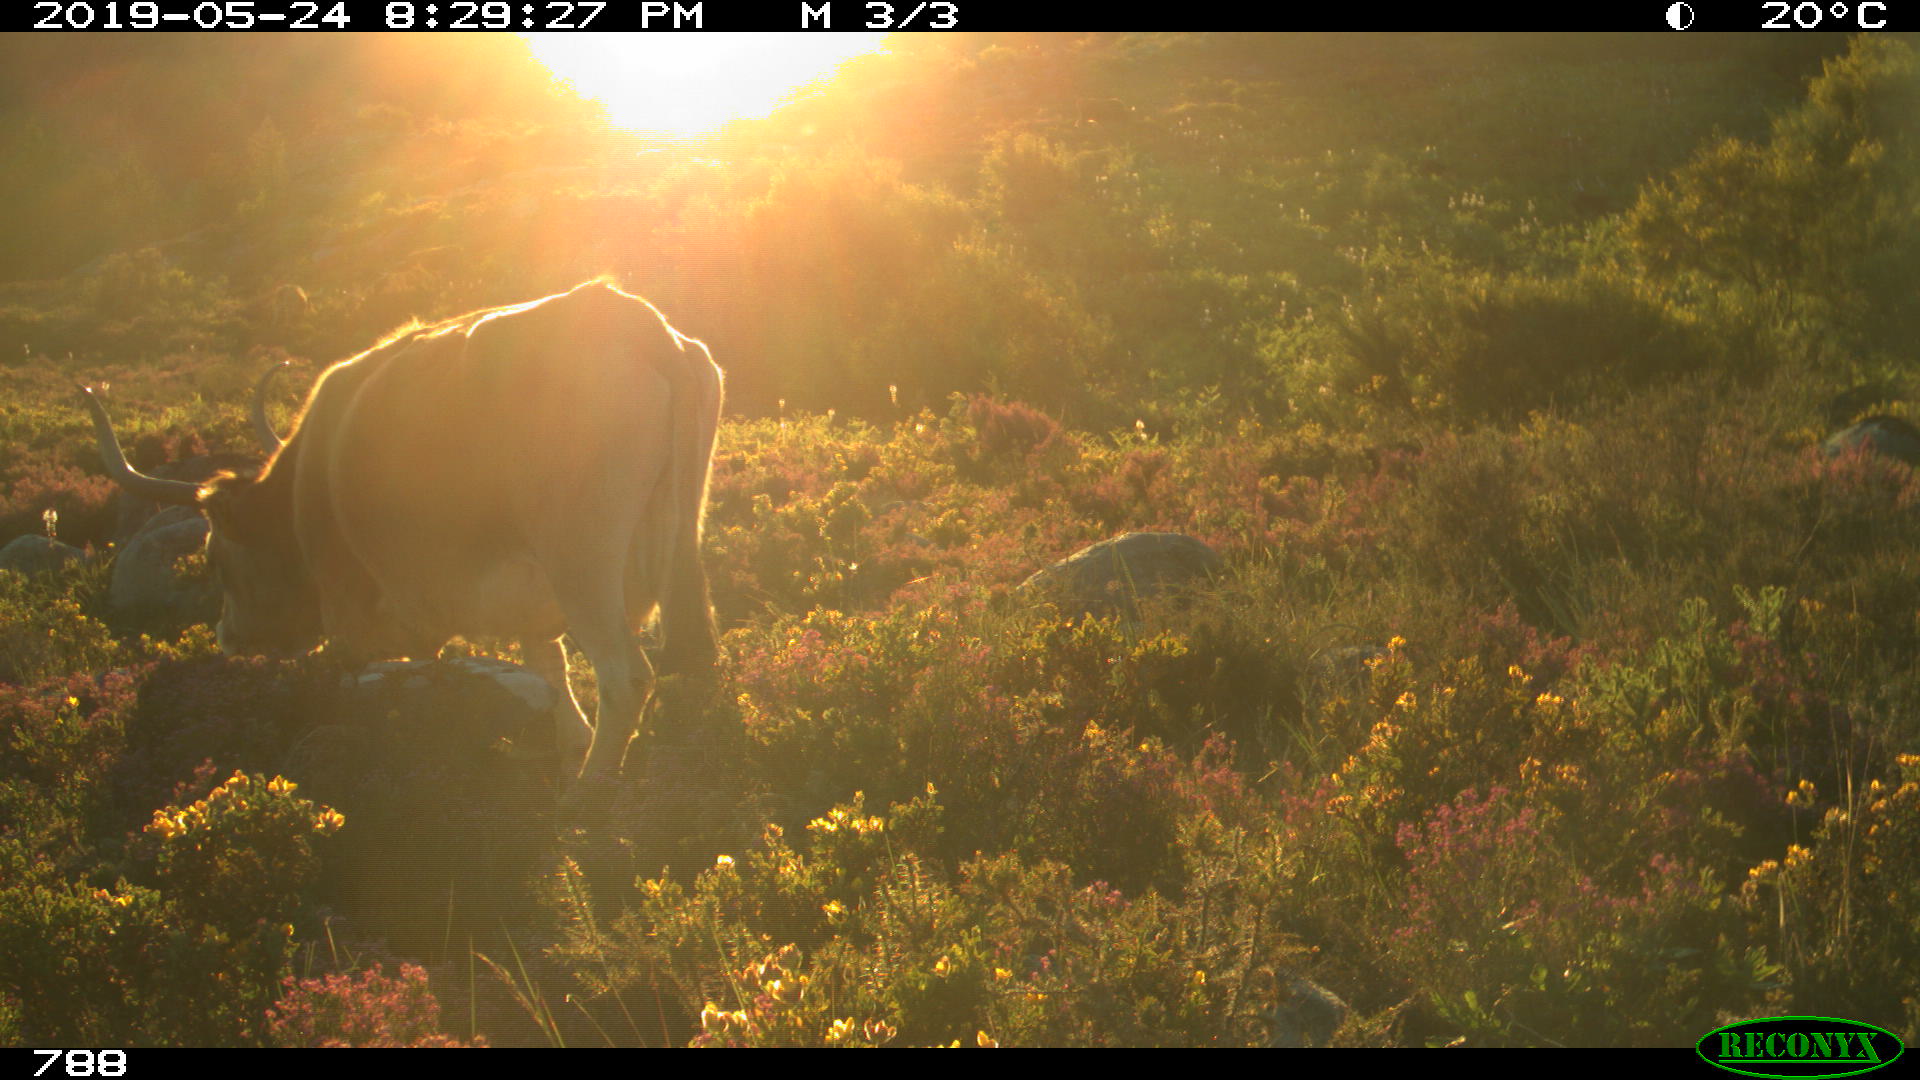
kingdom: Animalia
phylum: Chordata
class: Mammalia
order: Artiodactyla
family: Bovidae
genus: Bos
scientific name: Bos taurus
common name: Domesticated cattle
